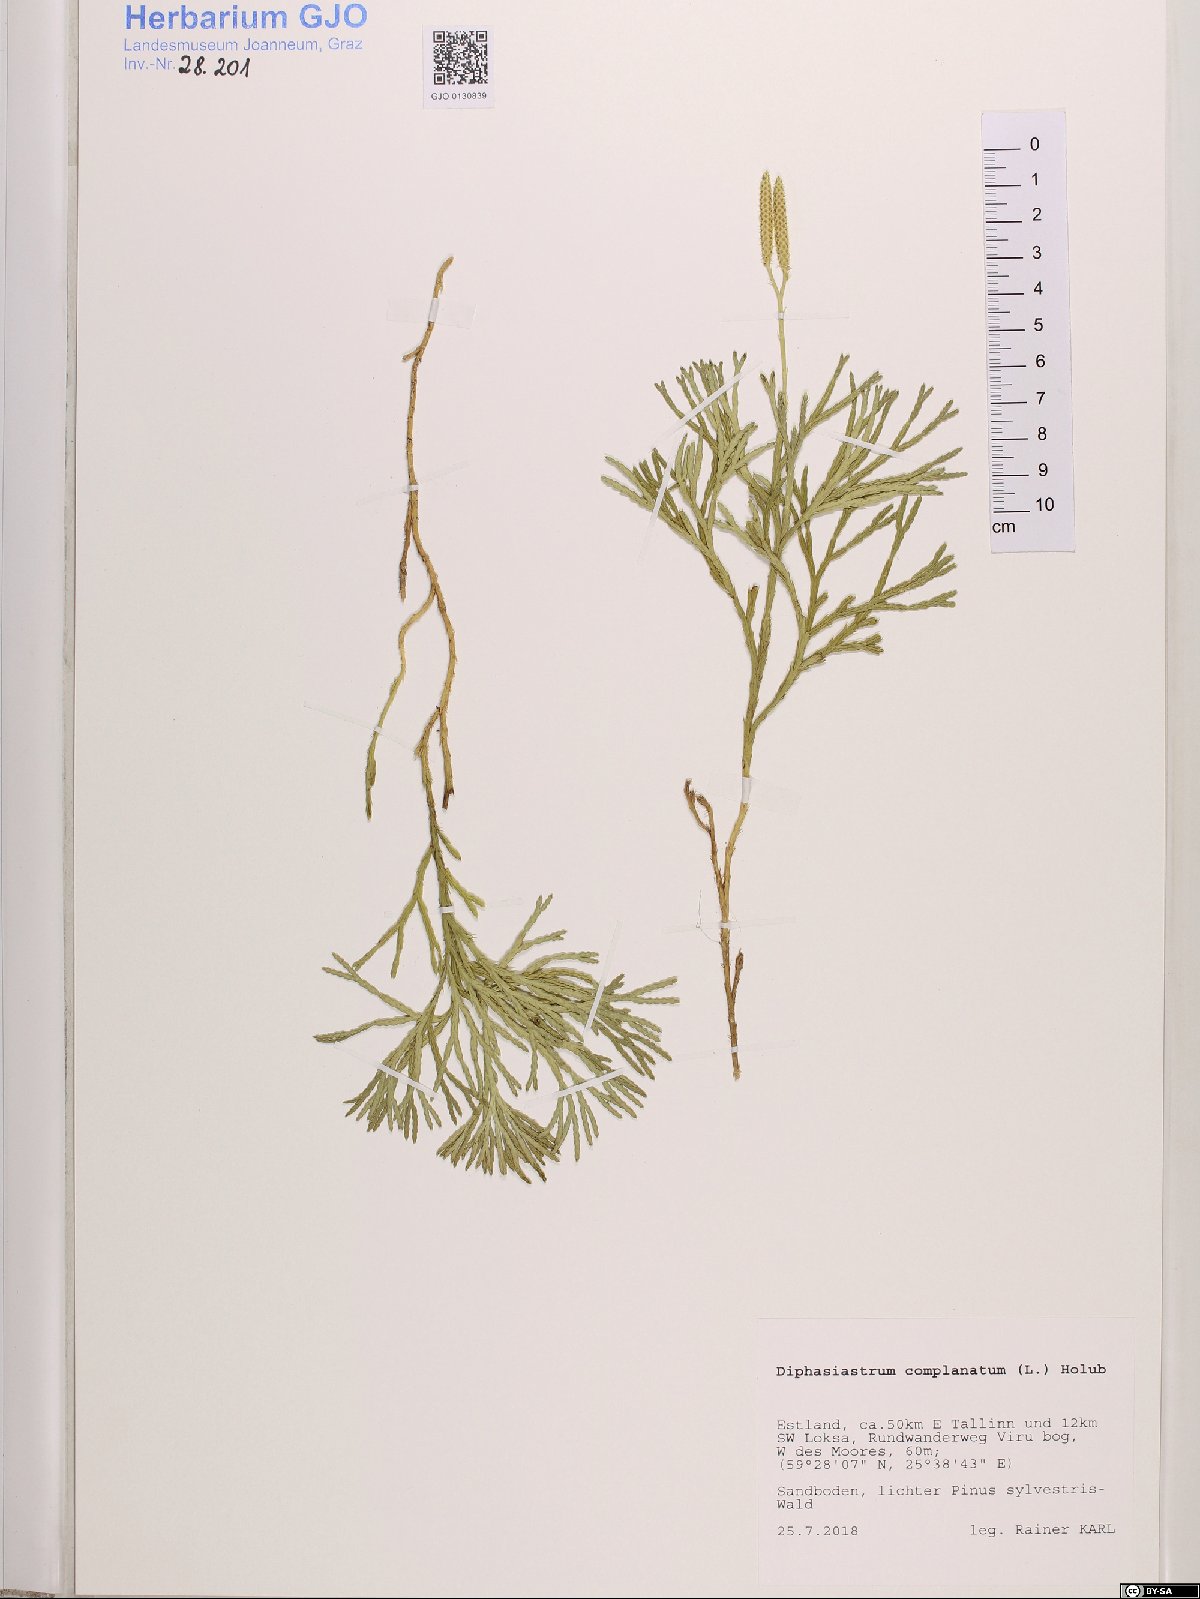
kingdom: Plantae
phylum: Tracheophyta
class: Lycopodiopsida
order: Lycopodiales
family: Lycopodiaceae
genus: Diphasiastrum
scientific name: Diphasiastrum complanatum
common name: Northern running-pine
